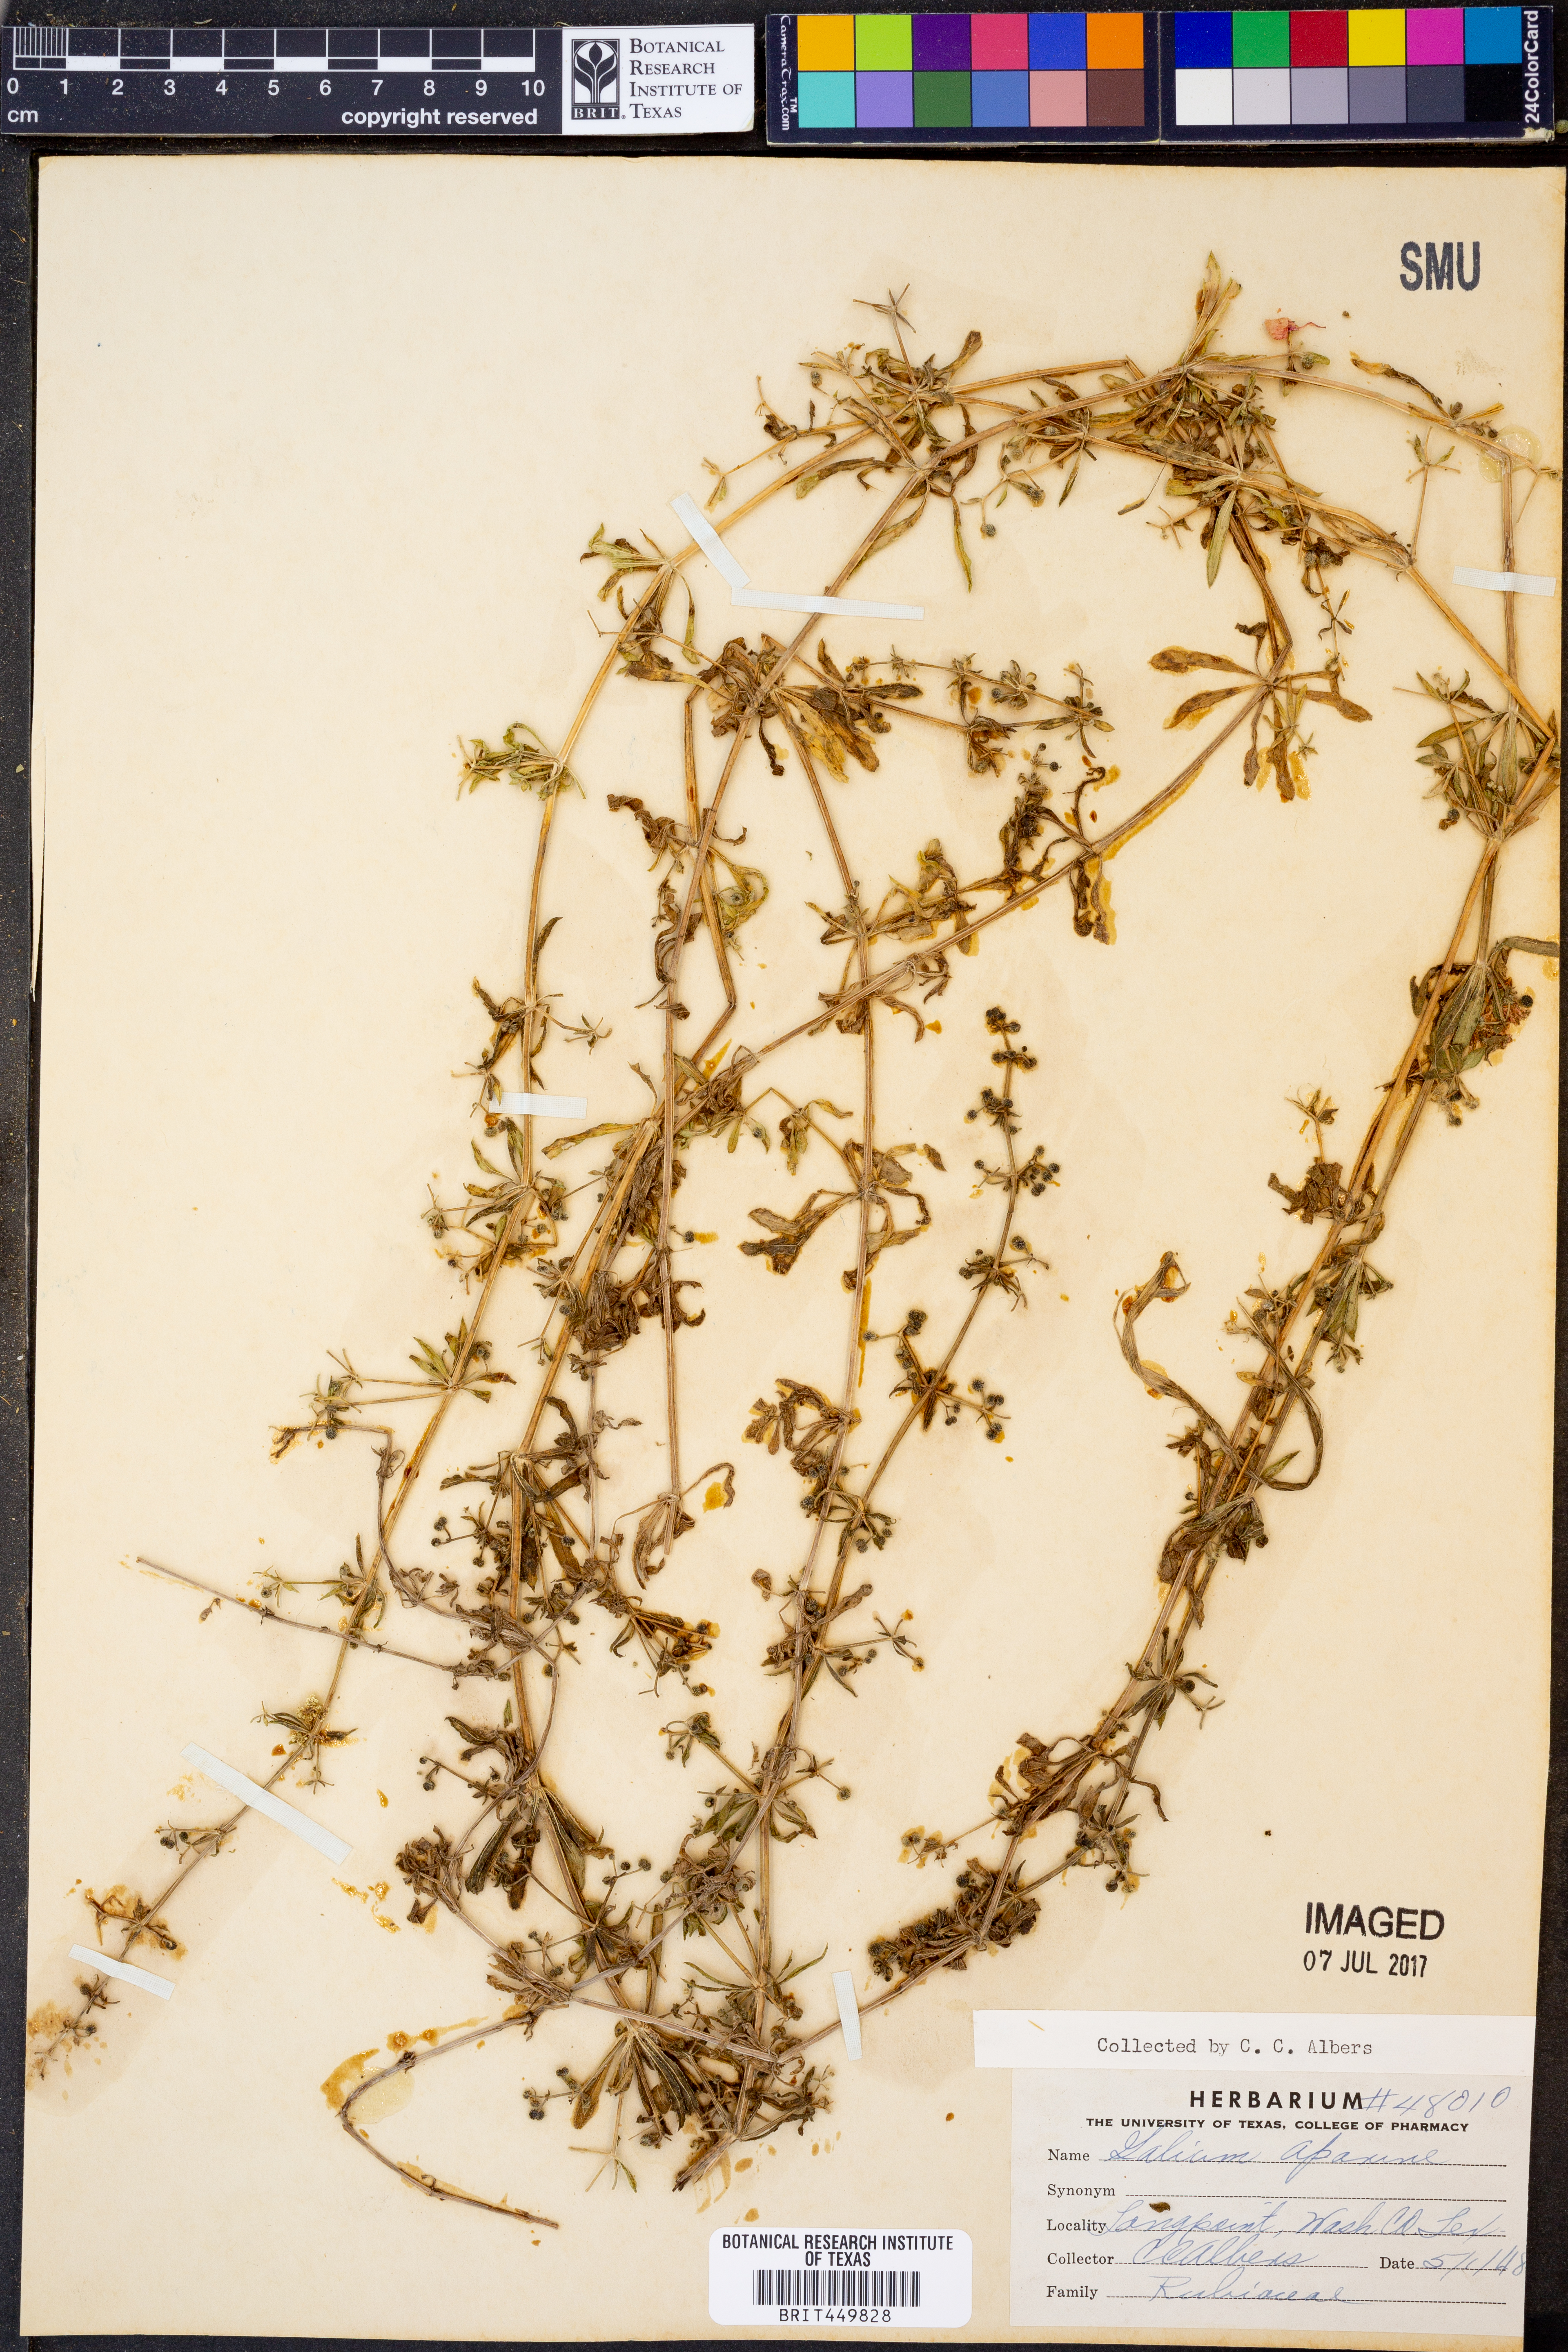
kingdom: Plantae
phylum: Tracheophyta
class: Magnoliopsida
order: Gentianales
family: Rubiaceae
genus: Galium
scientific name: Galium aparine
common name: Cleavers
